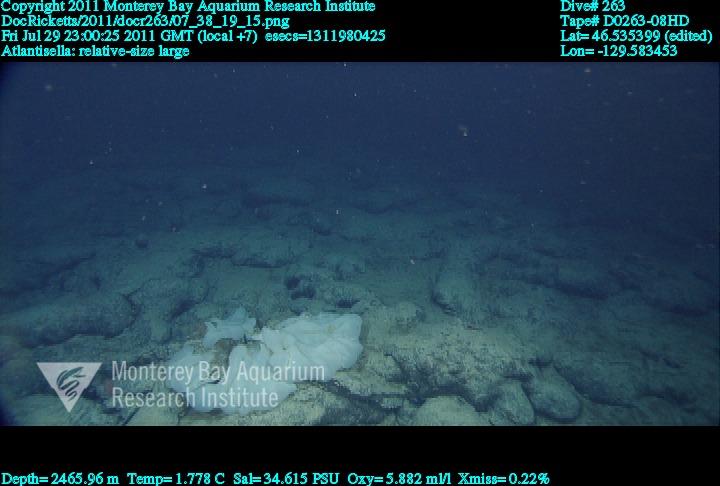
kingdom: Animalia
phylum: Porifera
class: Hexactinellida
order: Lyssacinosida
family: Euplectellidae
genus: Atlantisella
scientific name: Atlantisella
